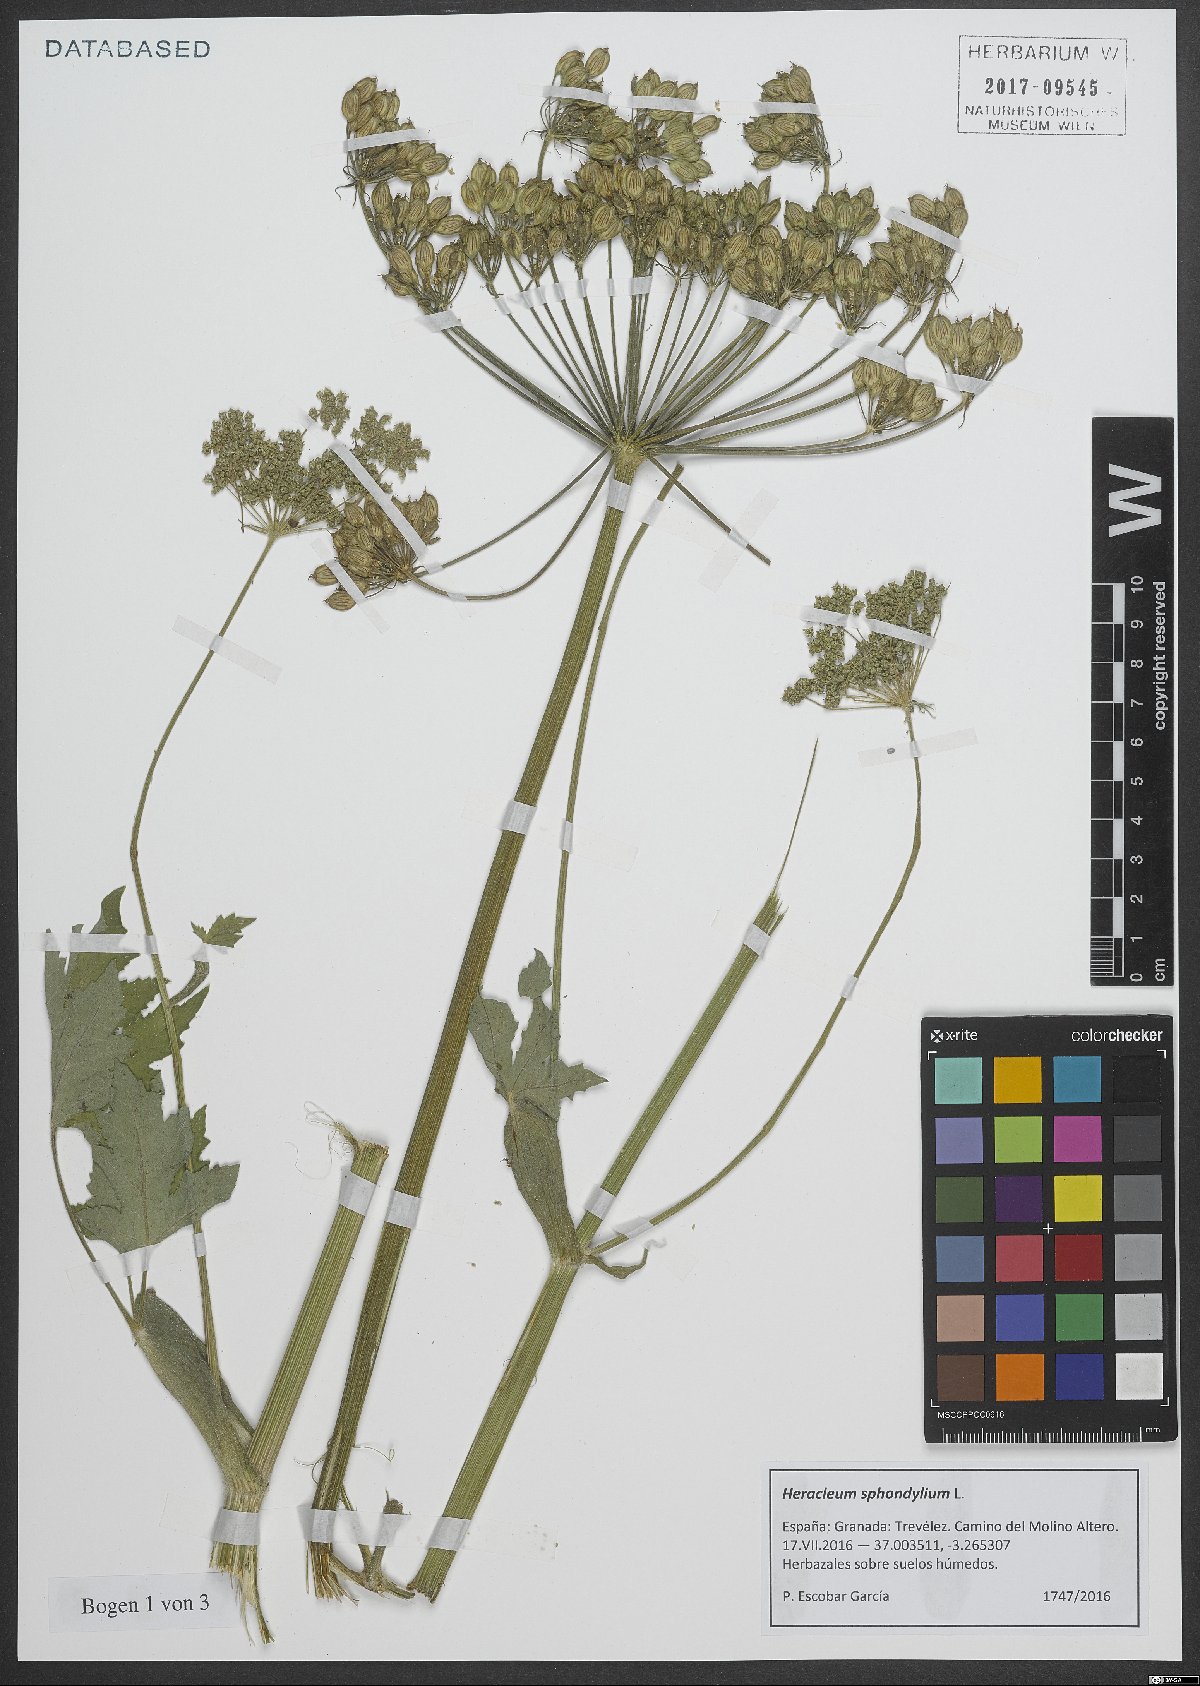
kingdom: Plantae
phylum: Tracheophyta
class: Magnoliopsida
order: Apiales
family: Apiaceae
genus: Heracleum
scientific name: Heracleum sphondylium
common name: Hogweed
